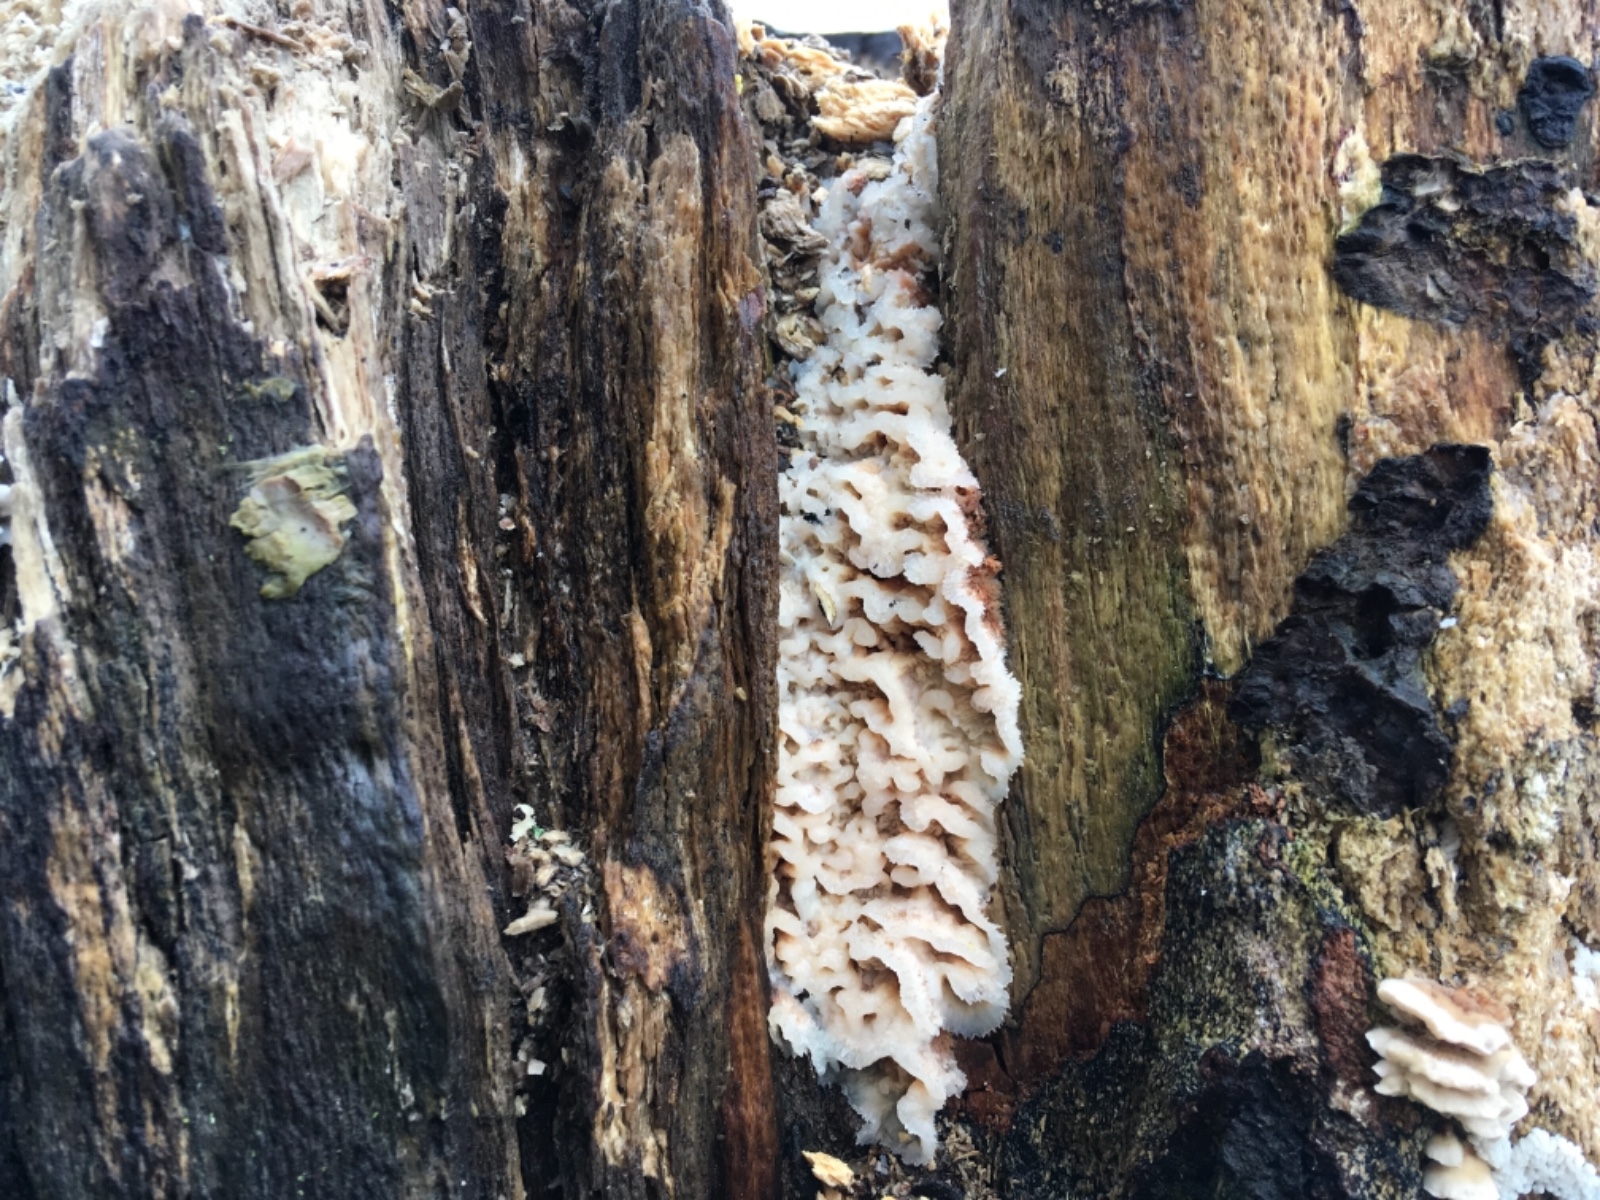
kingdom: Fungi
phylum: Basidiomycota
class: Agaricomycetes
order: Polyporales
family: Meruliaceae
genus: Phlebia
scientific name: Phlebia tremellosa
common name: bævrende åresvamp
